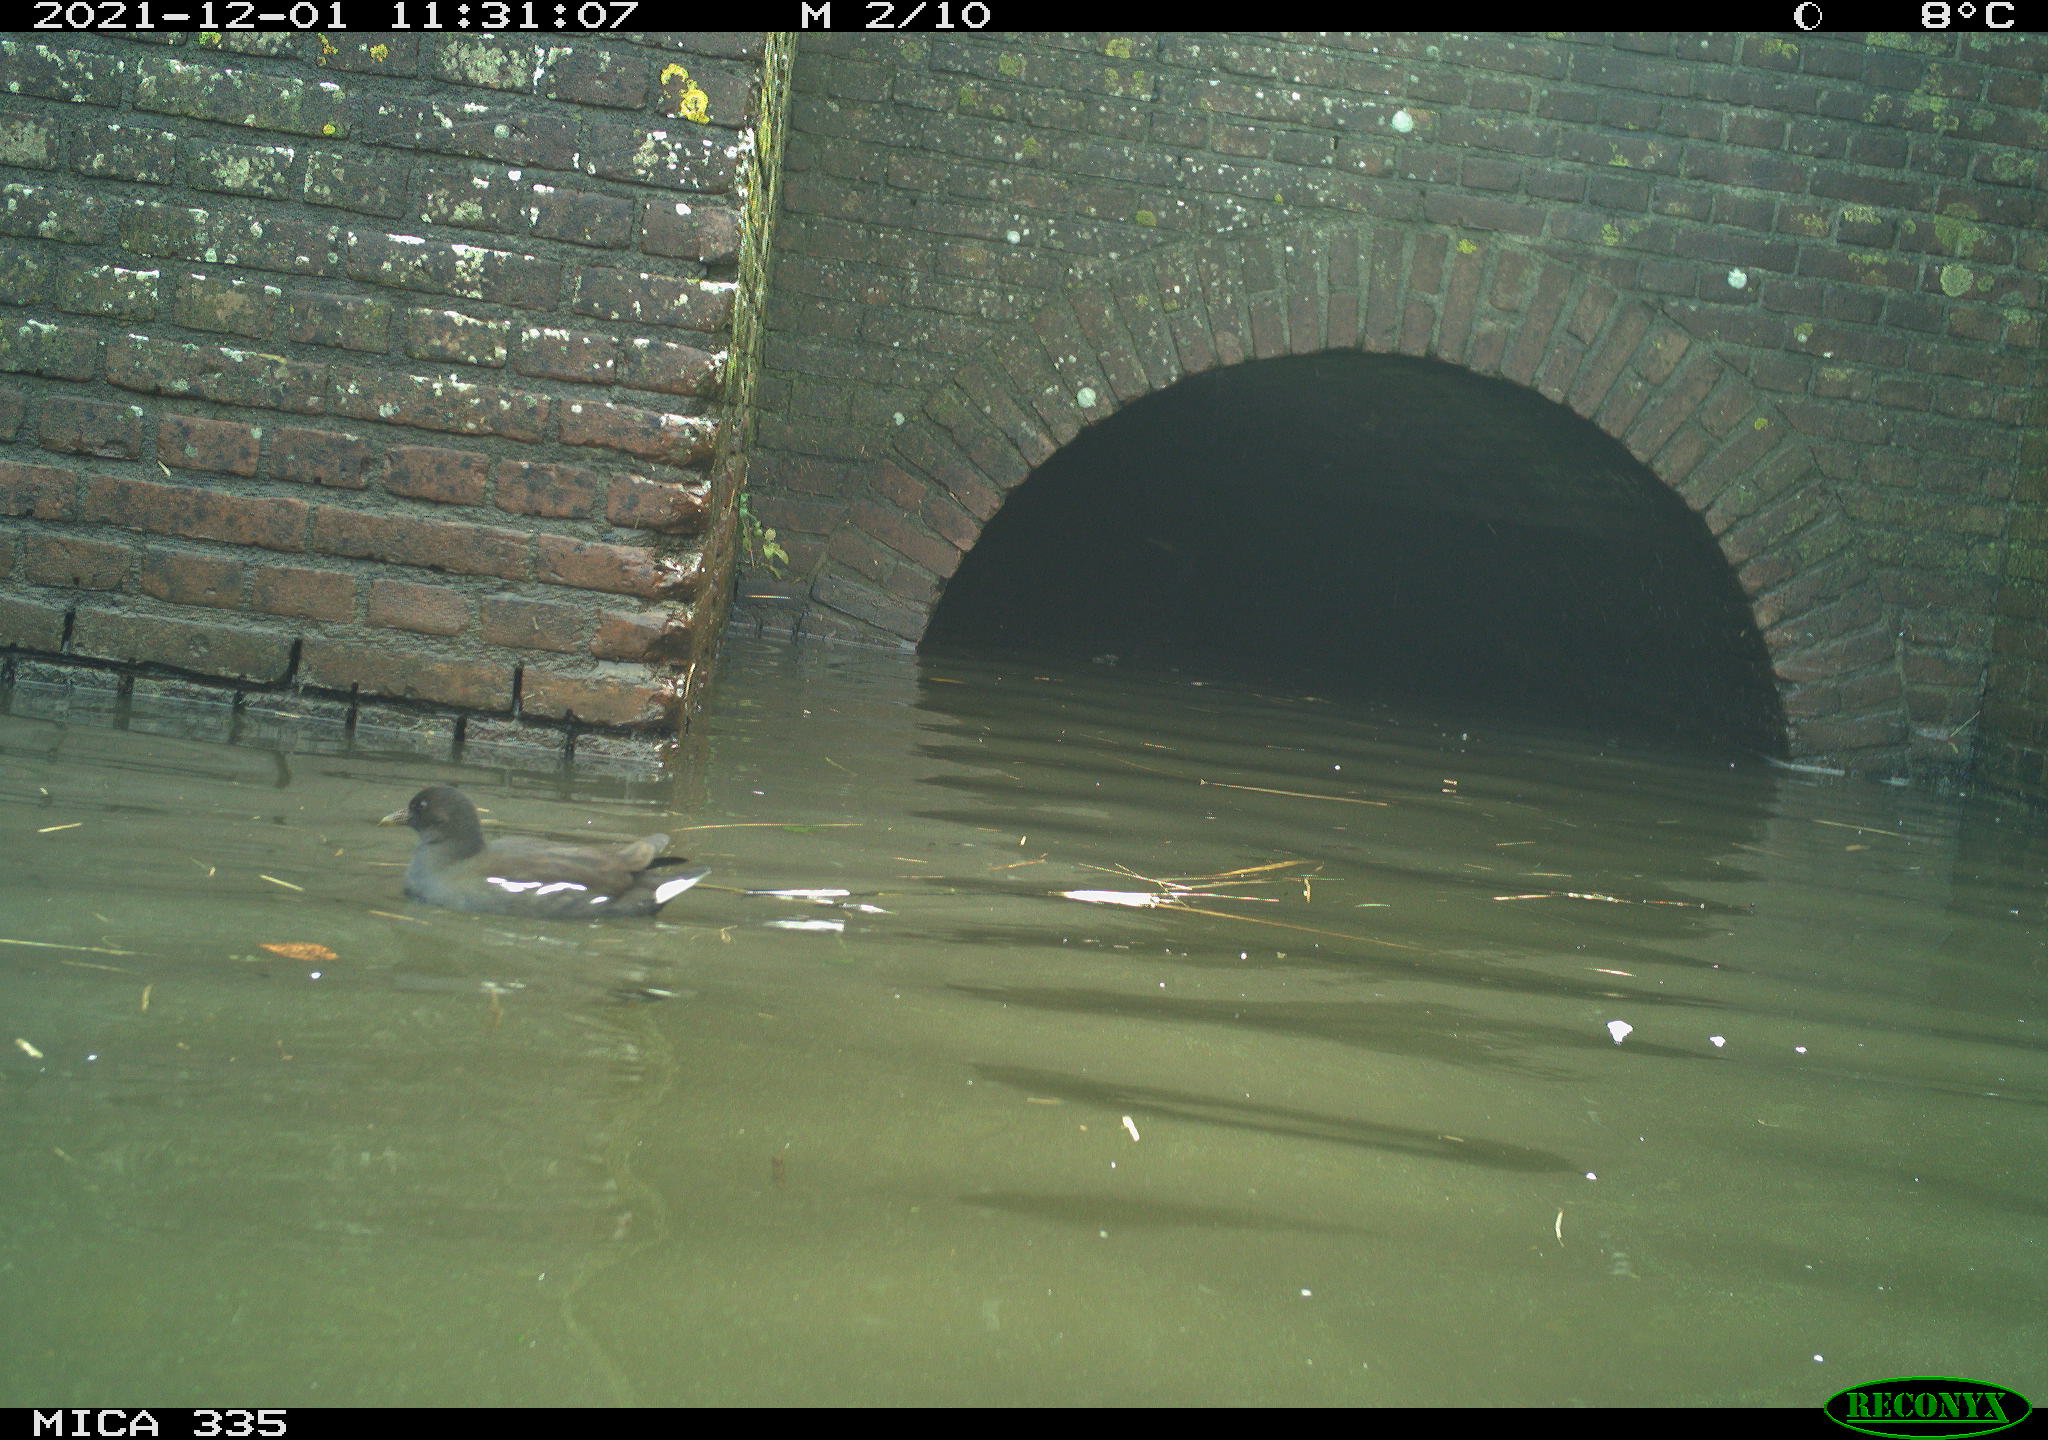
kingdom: Animalia
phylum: Chordata
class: Aves
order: Suliformes
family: Phalacrocoracidae
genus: Phalacrocorax
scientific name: Phalacrocorax carbo
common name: Great cormorant
